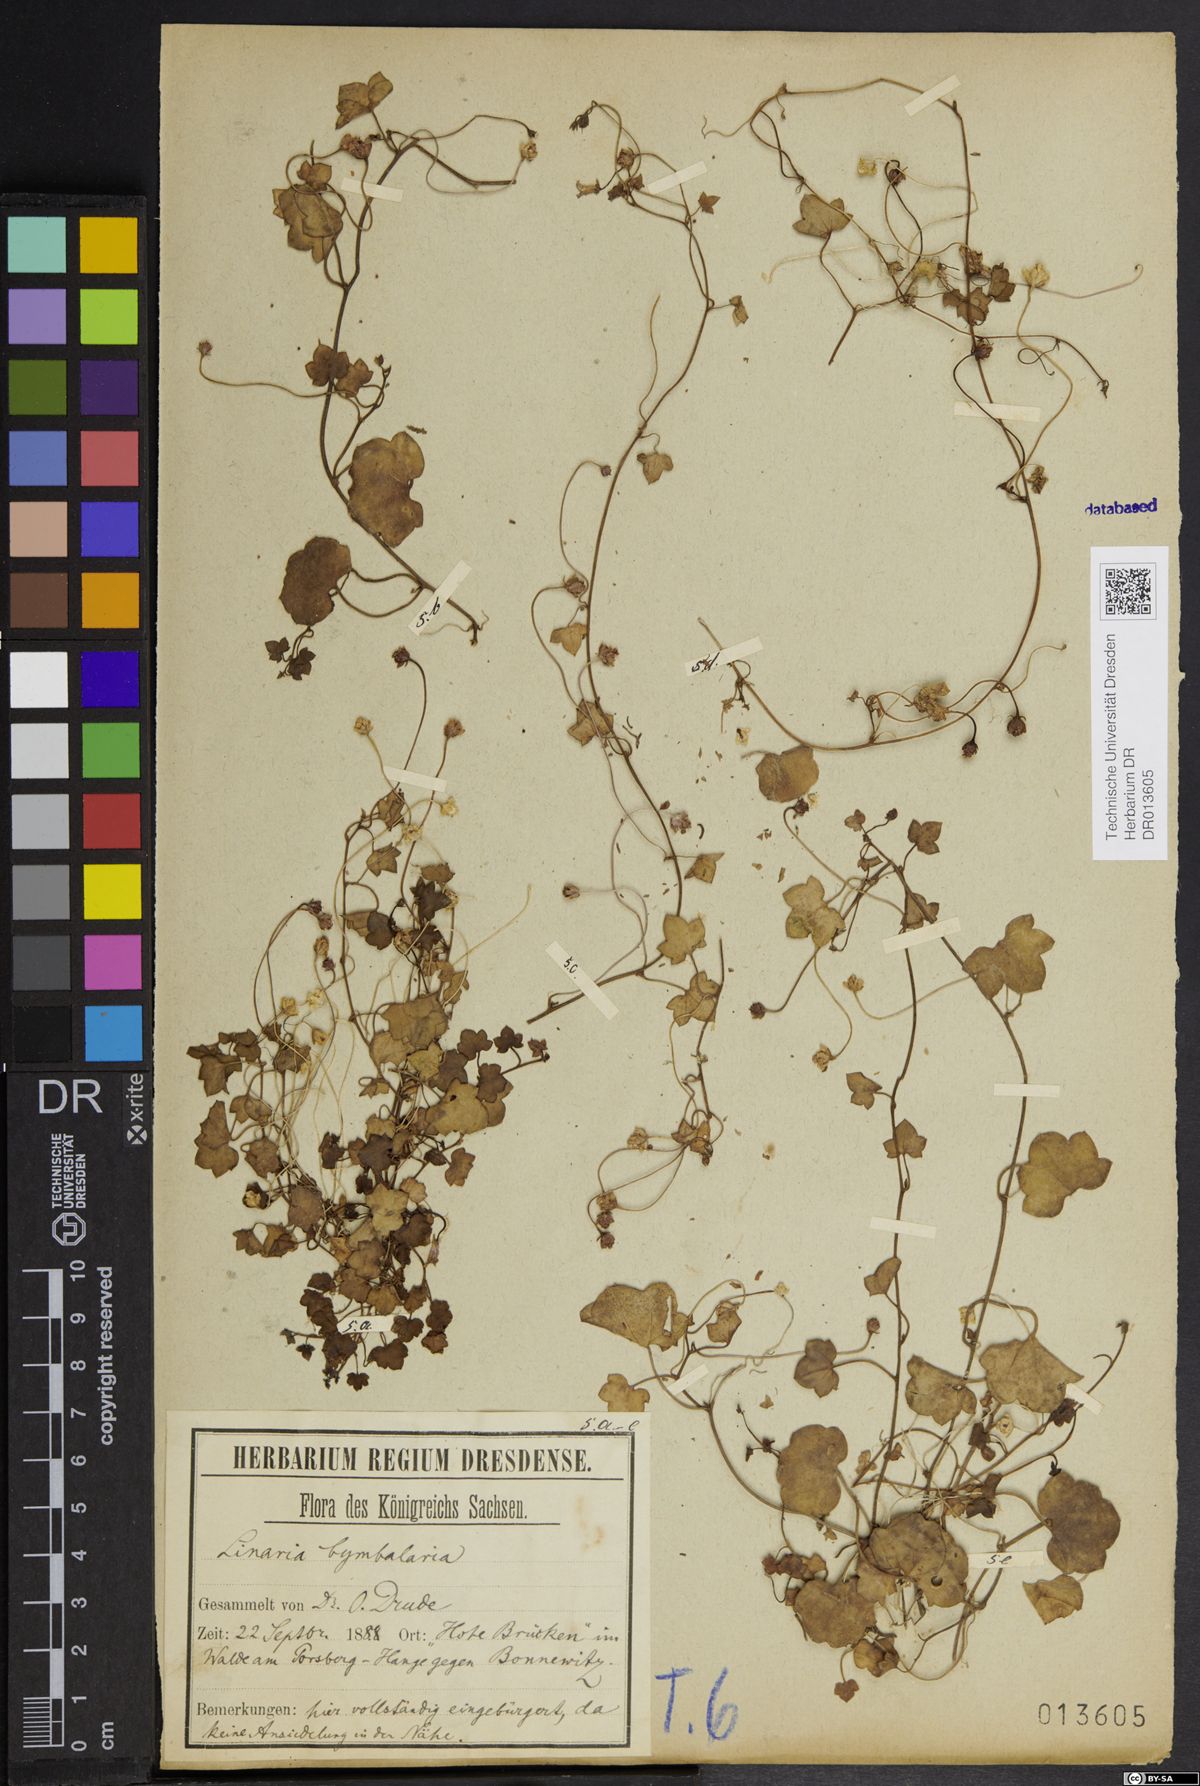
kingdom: Plantae
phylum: Tracheophyta
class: Magnoliopsida
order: Lamiales
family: Plantaginaceae
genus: Cymbalaria
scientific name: Cymbalaria muralis
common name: Ivy-leaved toadflax
